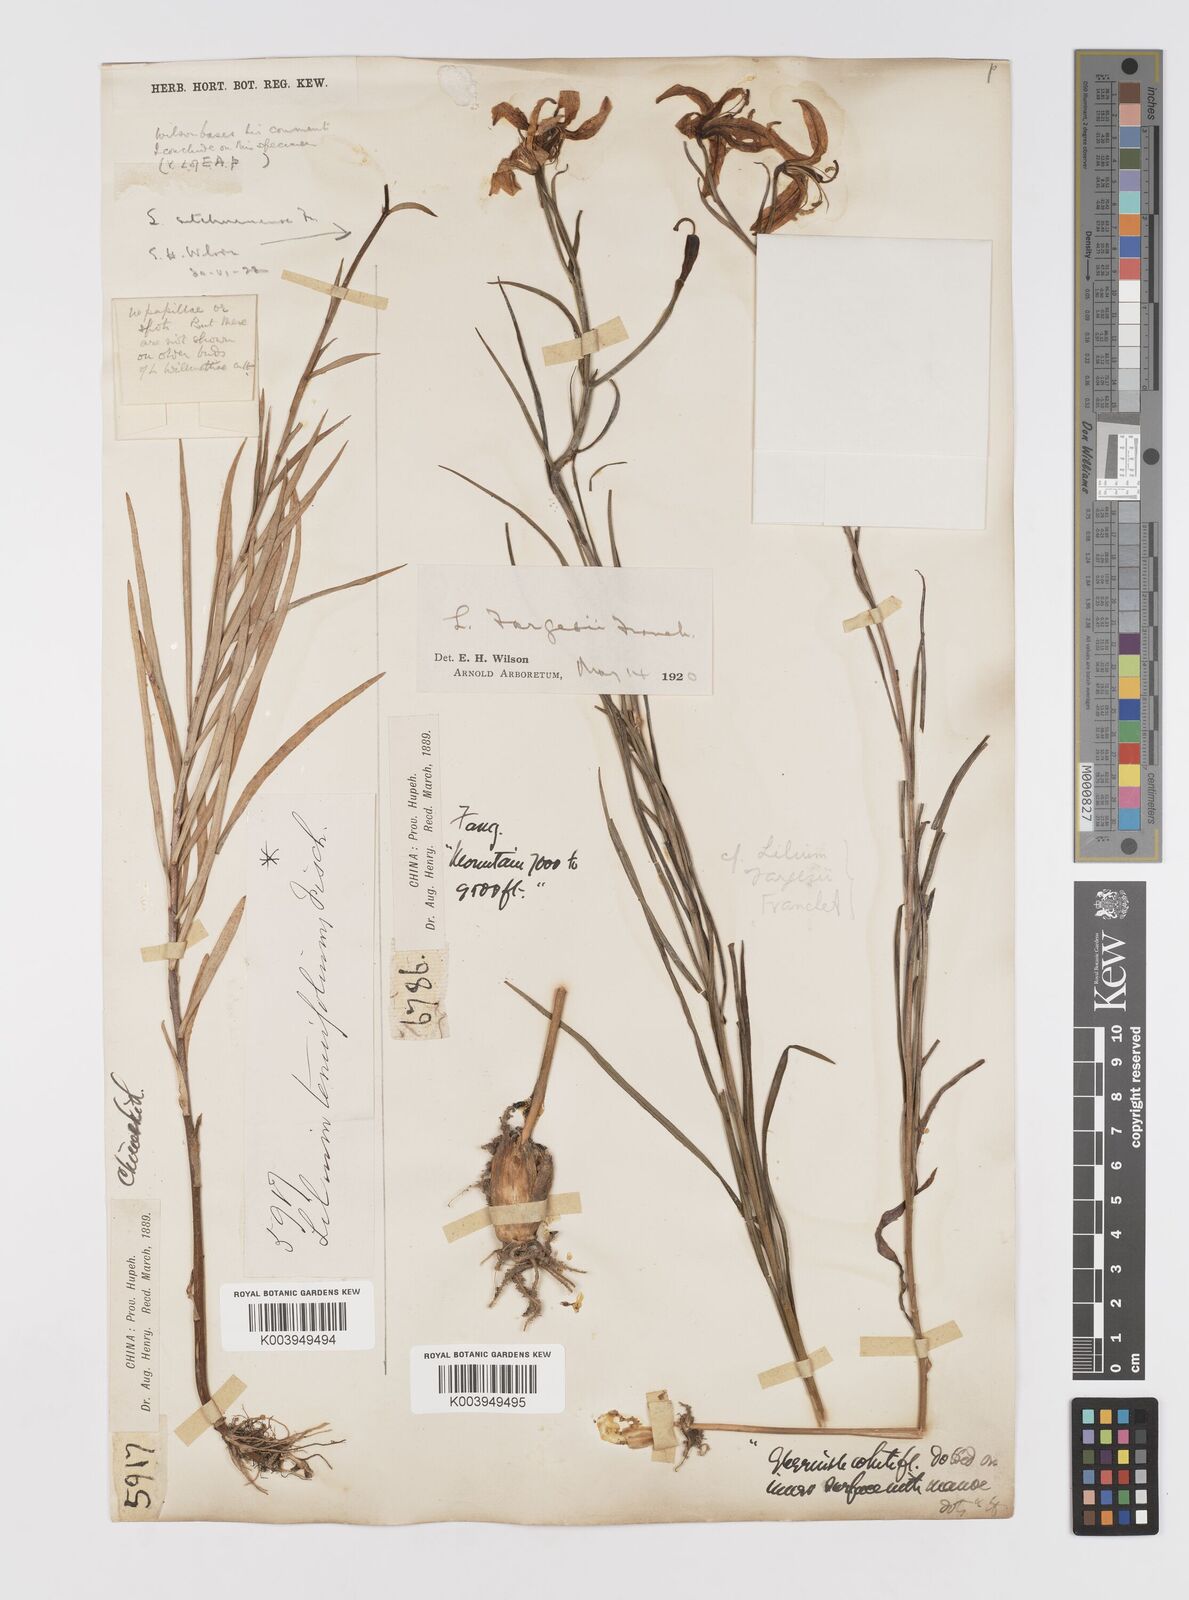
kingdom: Plantae
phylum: Tracheophyta
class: Liliopsida
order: Liliales
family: Liliaceae
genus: Lilium
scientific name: Lilium fargesii
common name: Farges's lily
